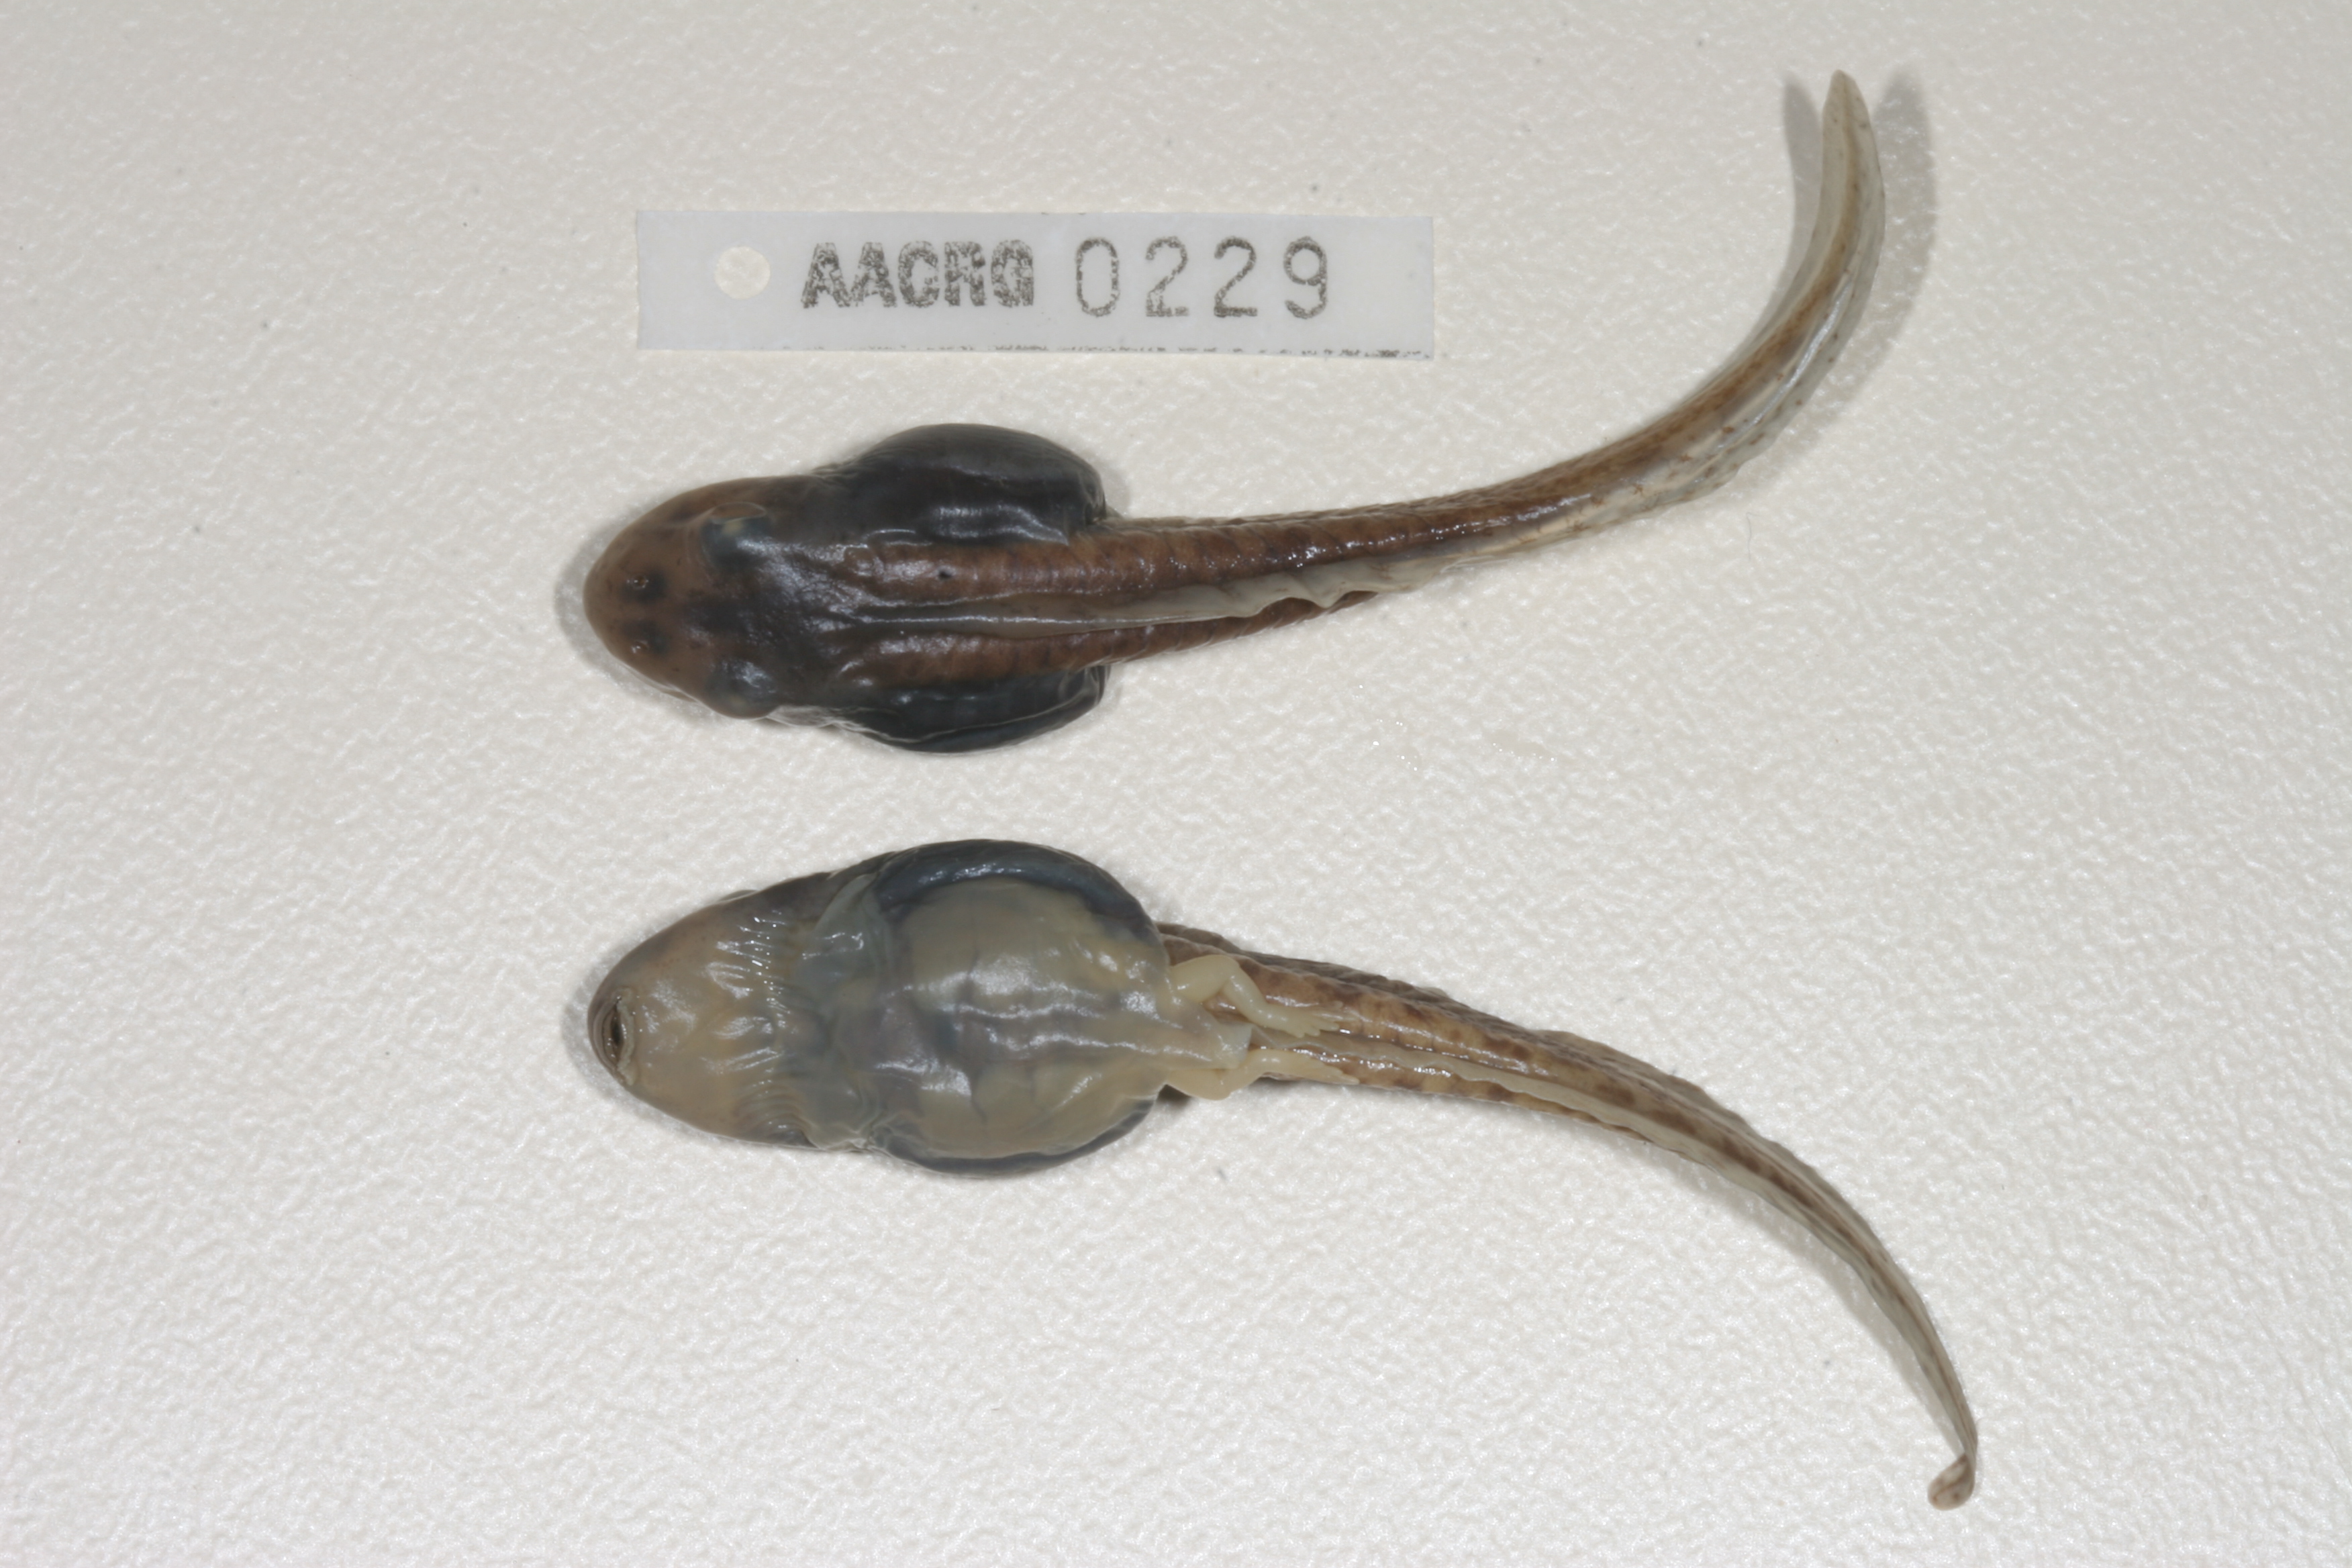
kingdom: Animalia
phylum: Chordata
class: Amphibia
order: Anura
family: Pyxicephalidae
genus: Amietia
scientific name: Amietia angolensis
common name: Dusky-throated frog
